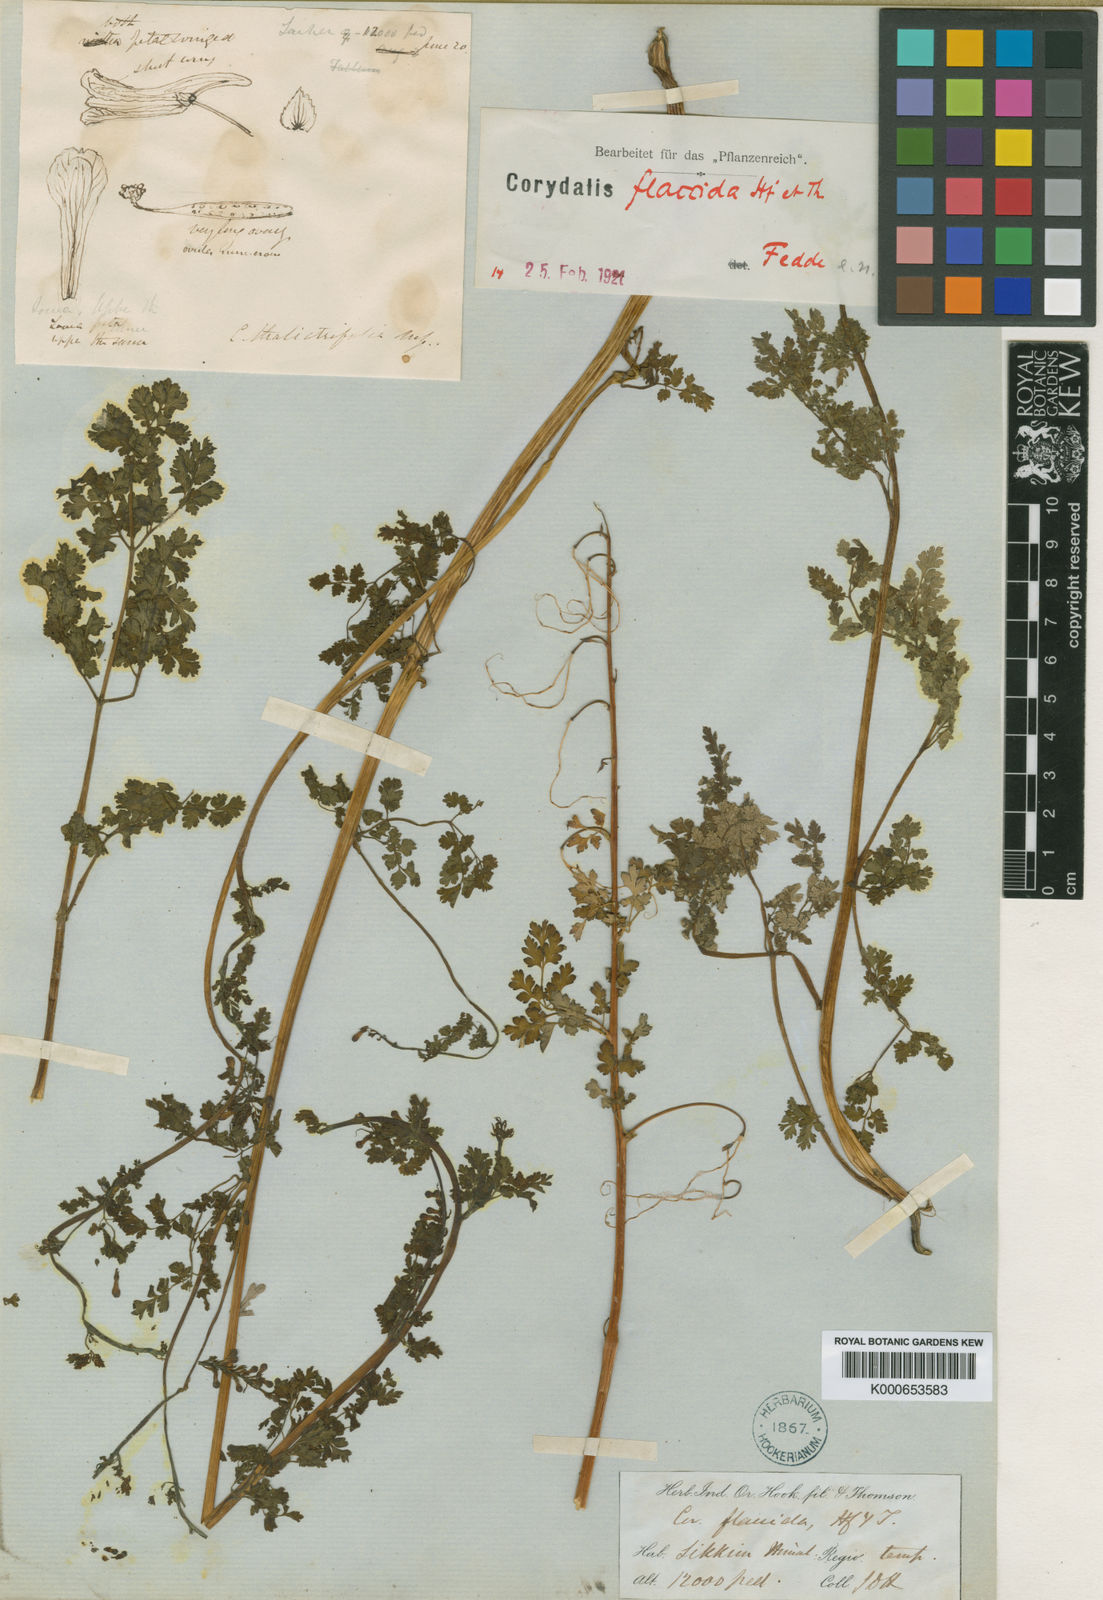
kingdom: Plantae
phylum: Tracheophyta
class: Magnoliopsida
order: Ranunculales
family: Papaveraceae
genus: Corydalis
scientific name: Corydalis flaccida
